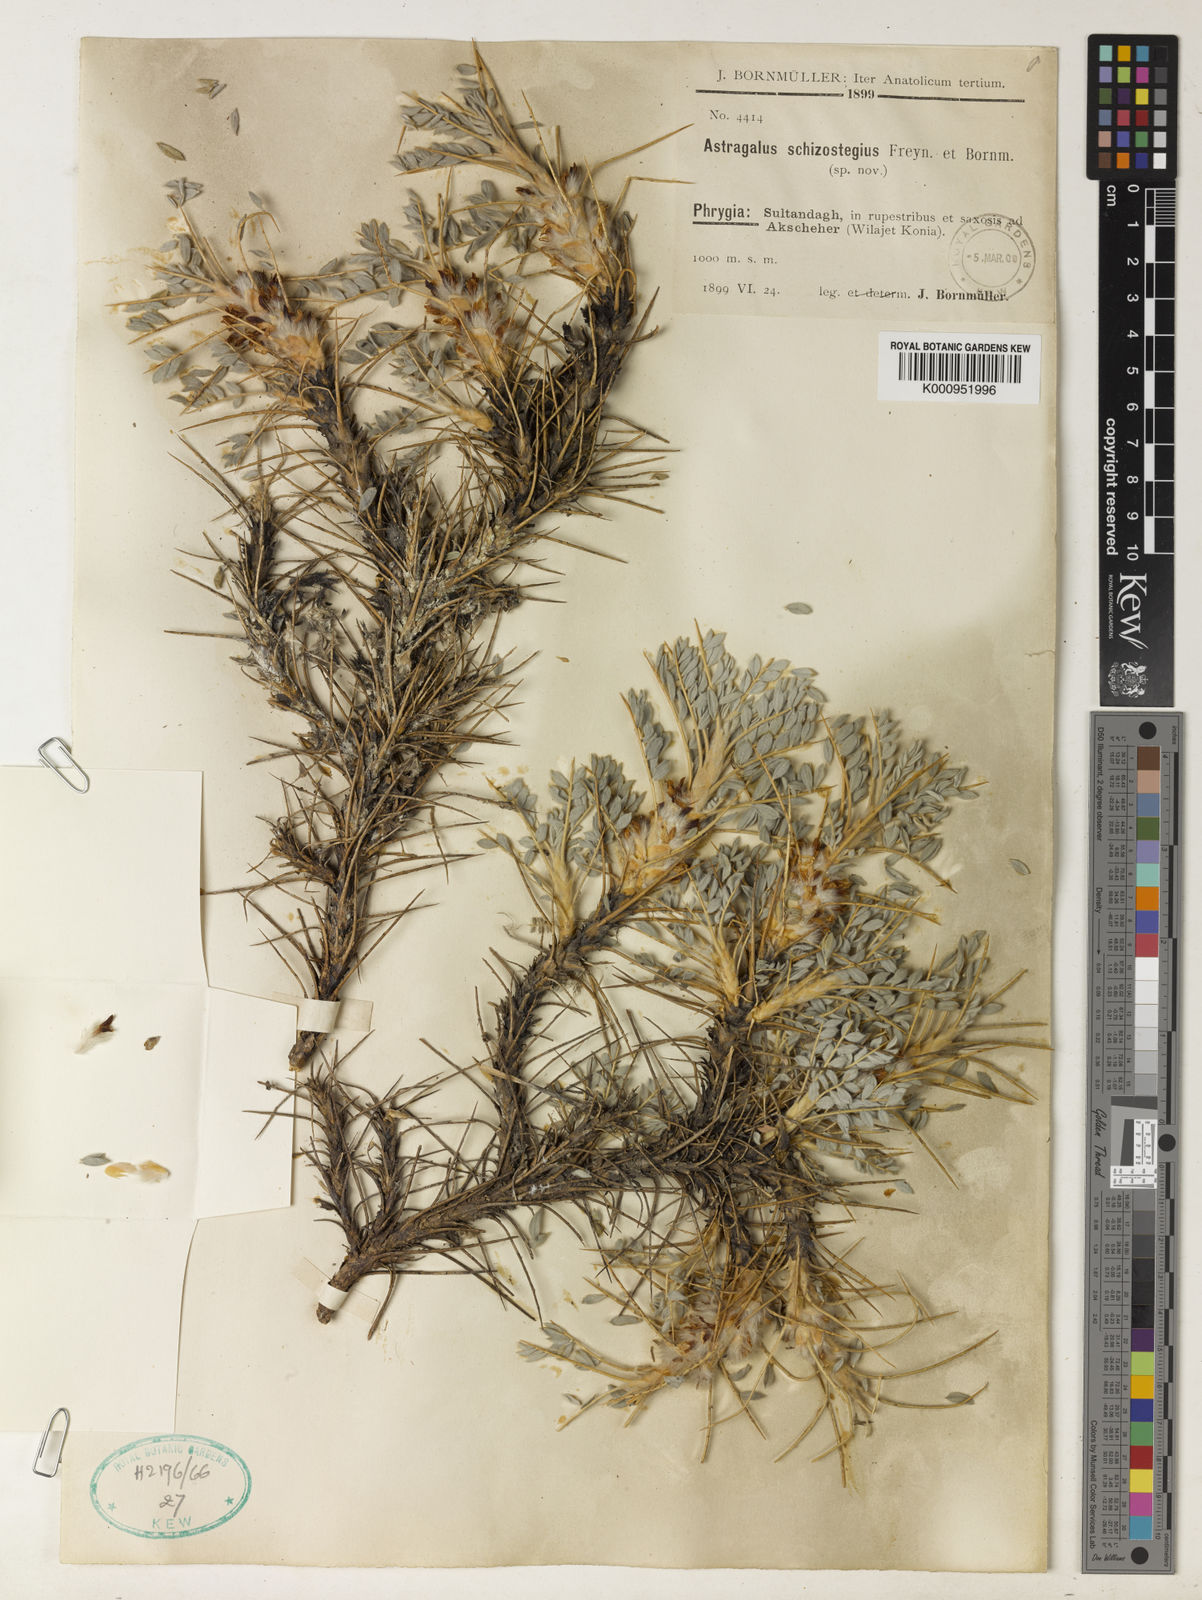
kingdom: Plantae
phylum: Tracheophyta
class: Magnoliopsida
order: Fabales
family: Fabaceae
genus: Astragalus
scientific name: Astragalus tmoleus
